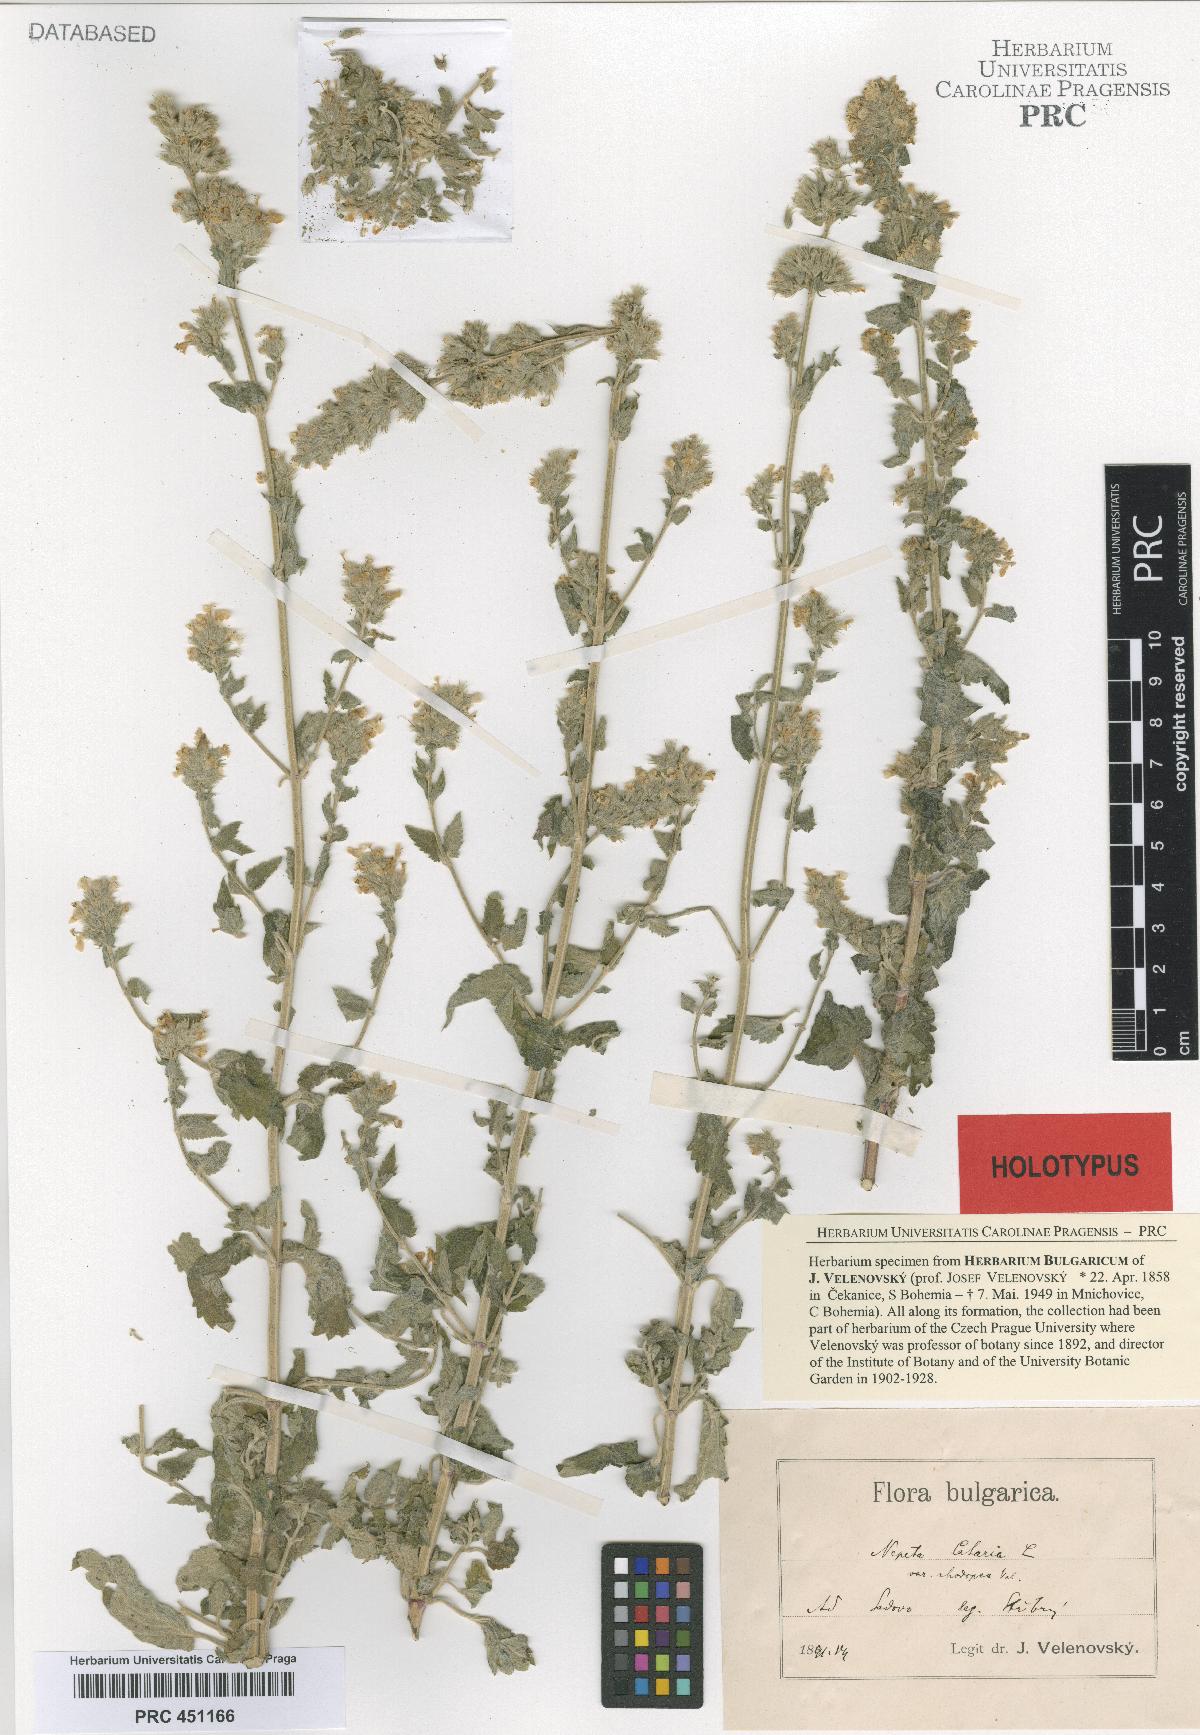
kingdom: Plantae
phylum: Tracheophyta
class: Magnoliopsida
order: Lamiales
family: Lamiaceae
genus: Nepeta
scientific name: Nepeta cataria
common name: Catnip
